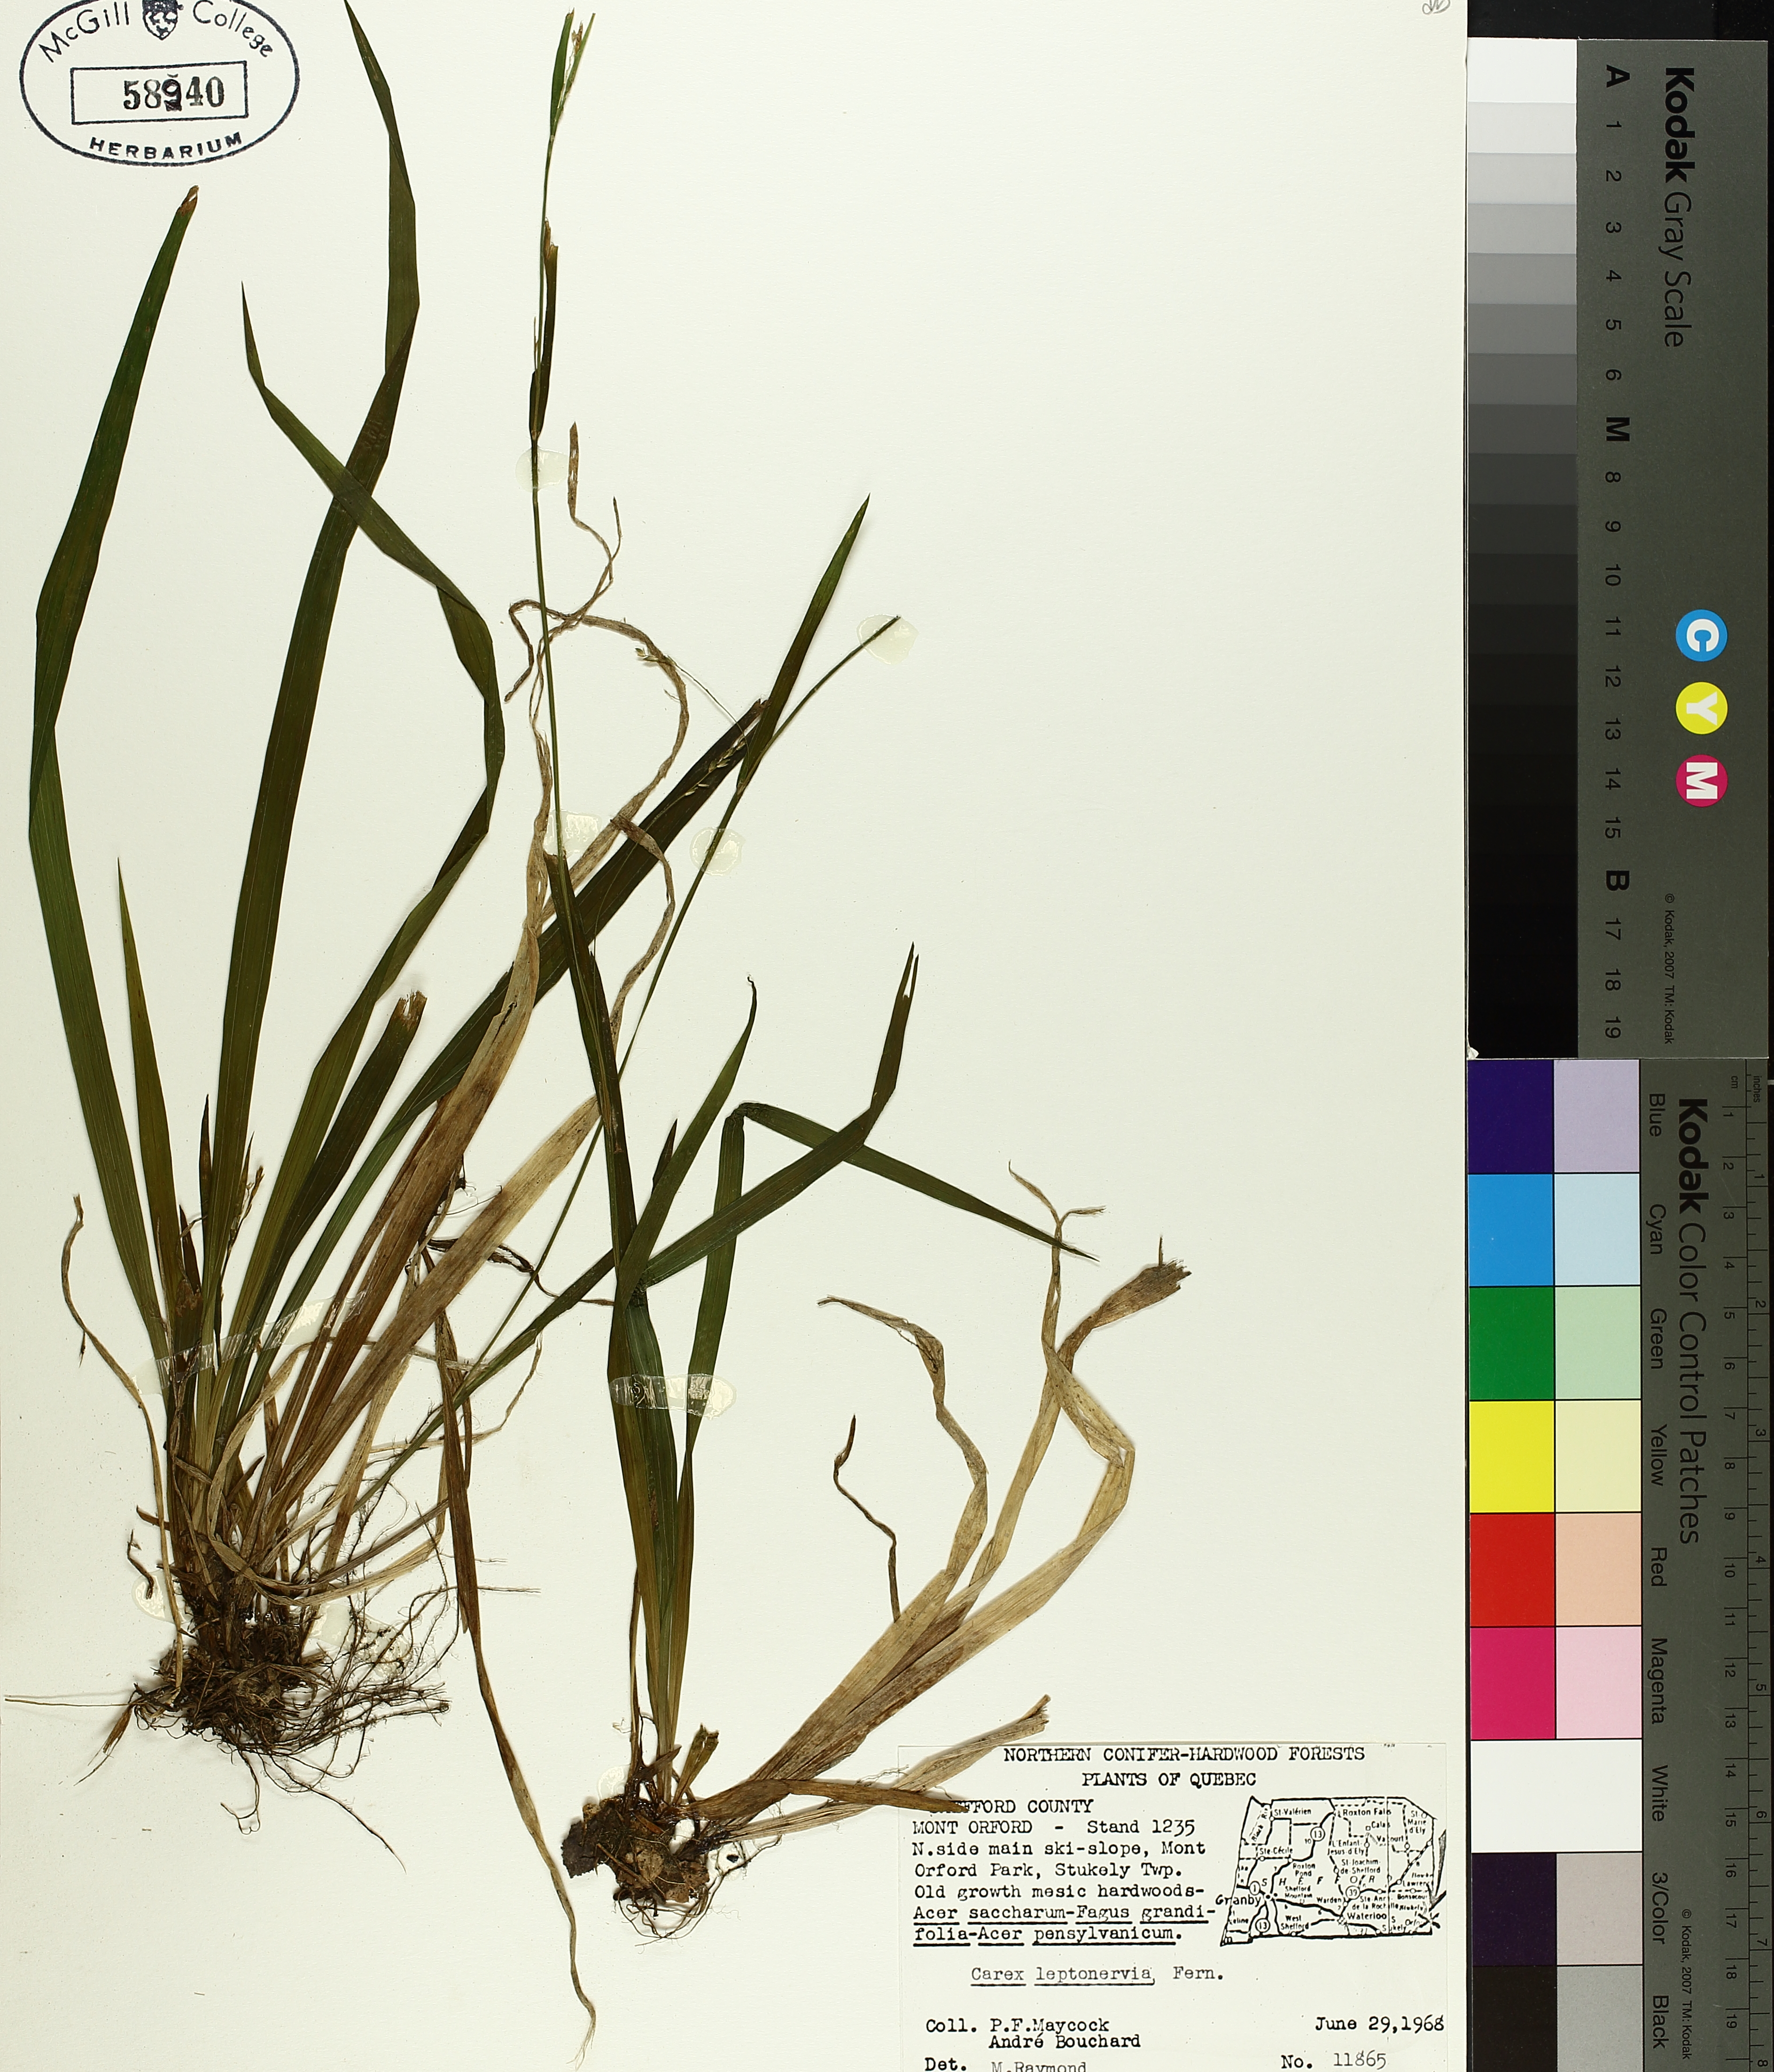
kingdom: Plantae
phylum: Tracheophyta
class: Liliopsida
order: Poales
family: Cyperaceae
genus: Carex
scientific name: Carex leptonervia
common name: Few-nerved wood sedge
